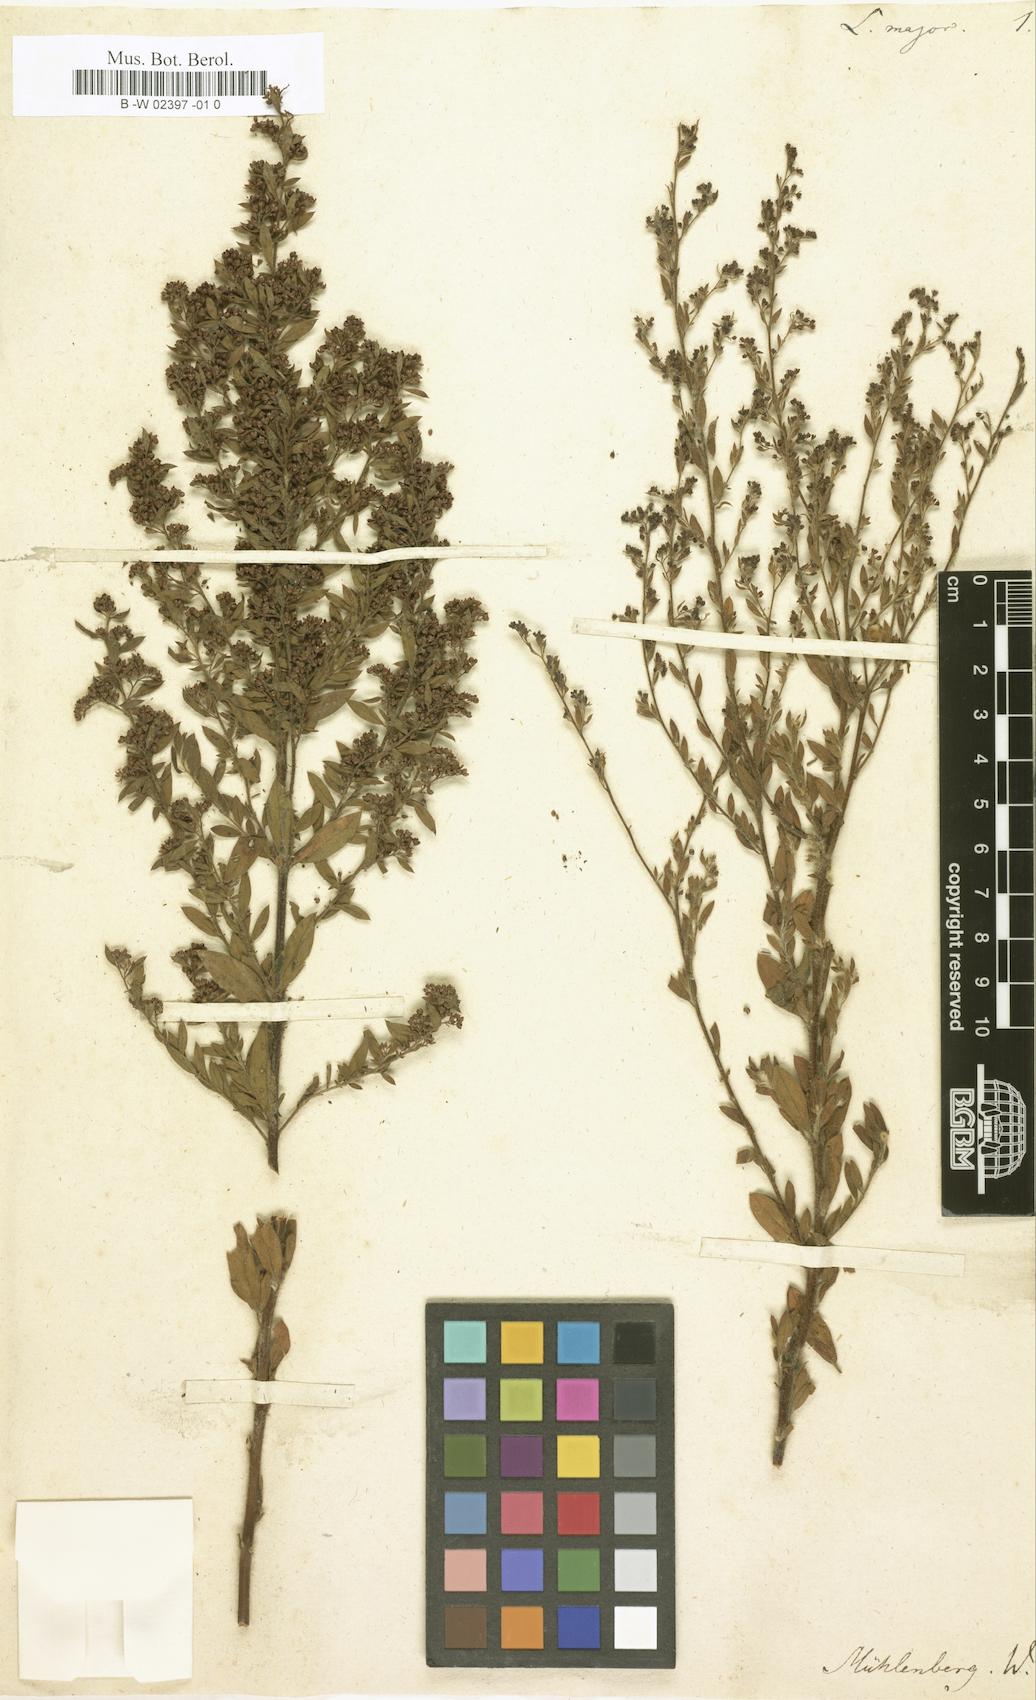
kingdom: Plantae
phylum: Tracheophyta
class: Magnoliopsida
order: Malvales
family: Cistaceae
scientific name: Cistaceae
